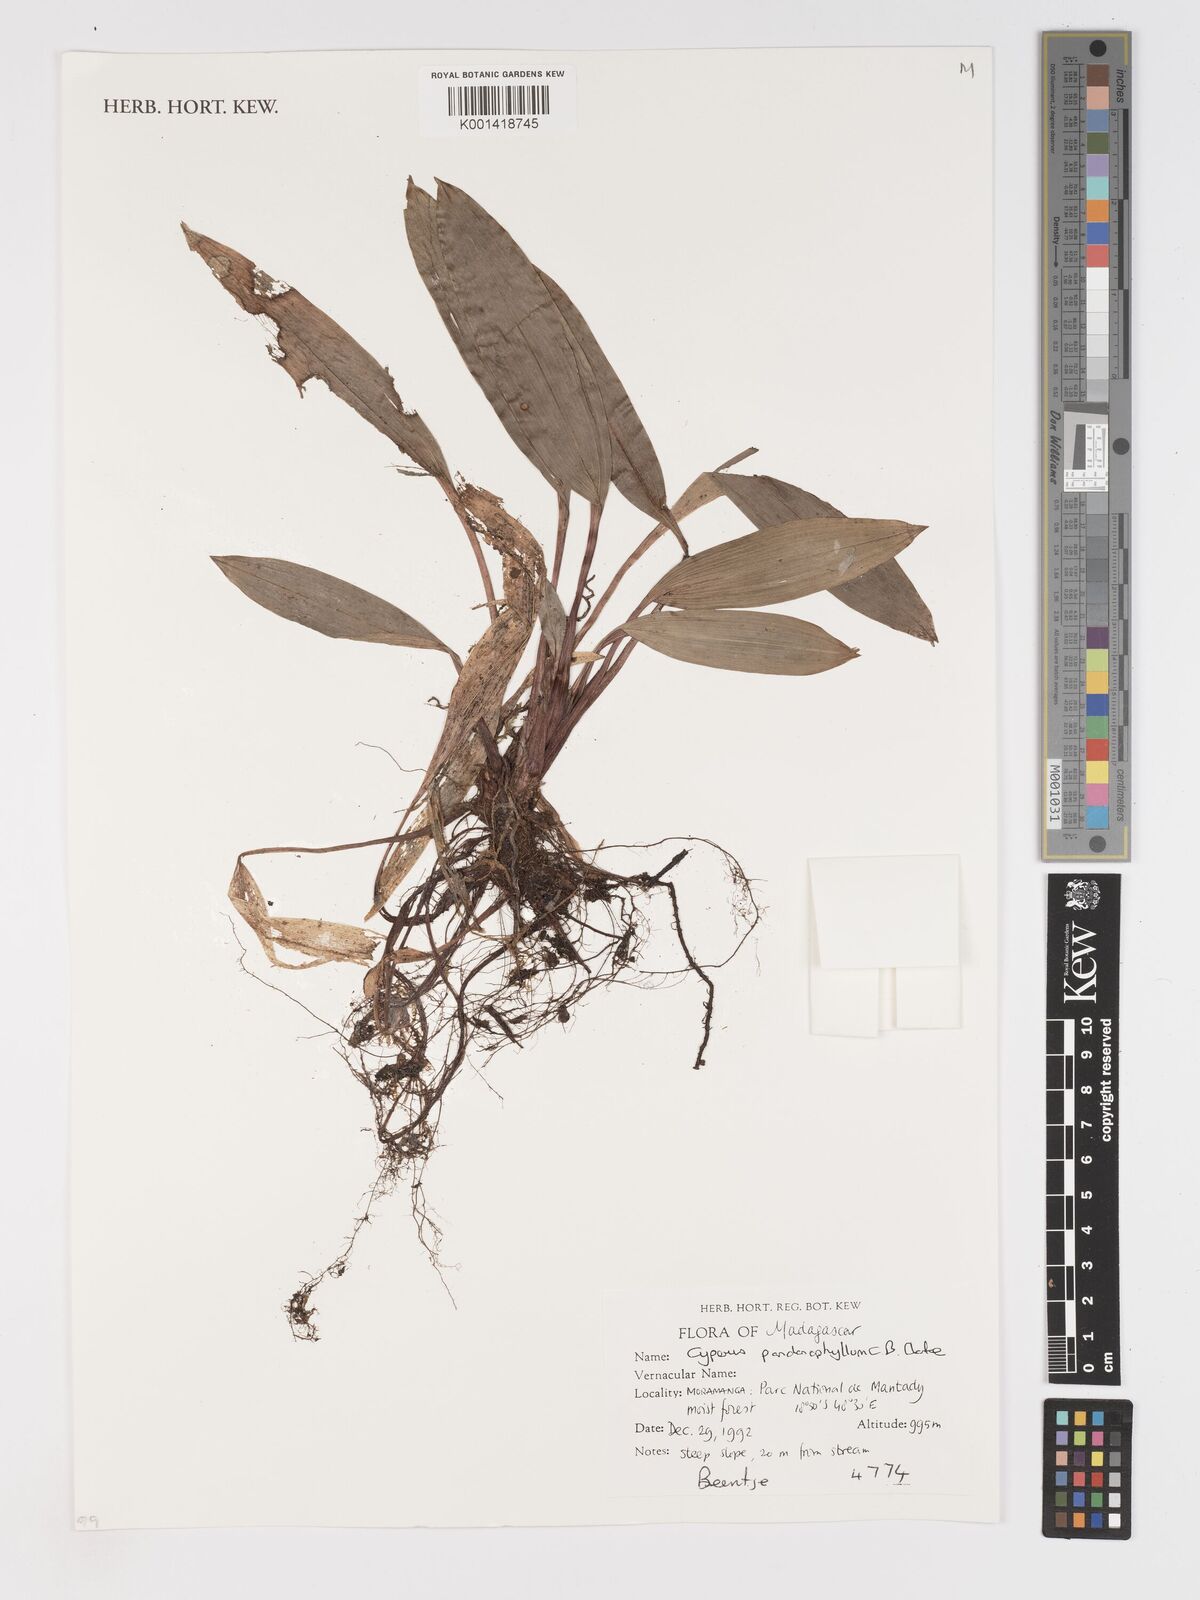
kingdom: Plantae
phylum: Tracheophyta
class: Liliopsida
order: Poales
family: Cyperaceae
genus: Cyperus
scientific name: Cyperus pandanophyllum
